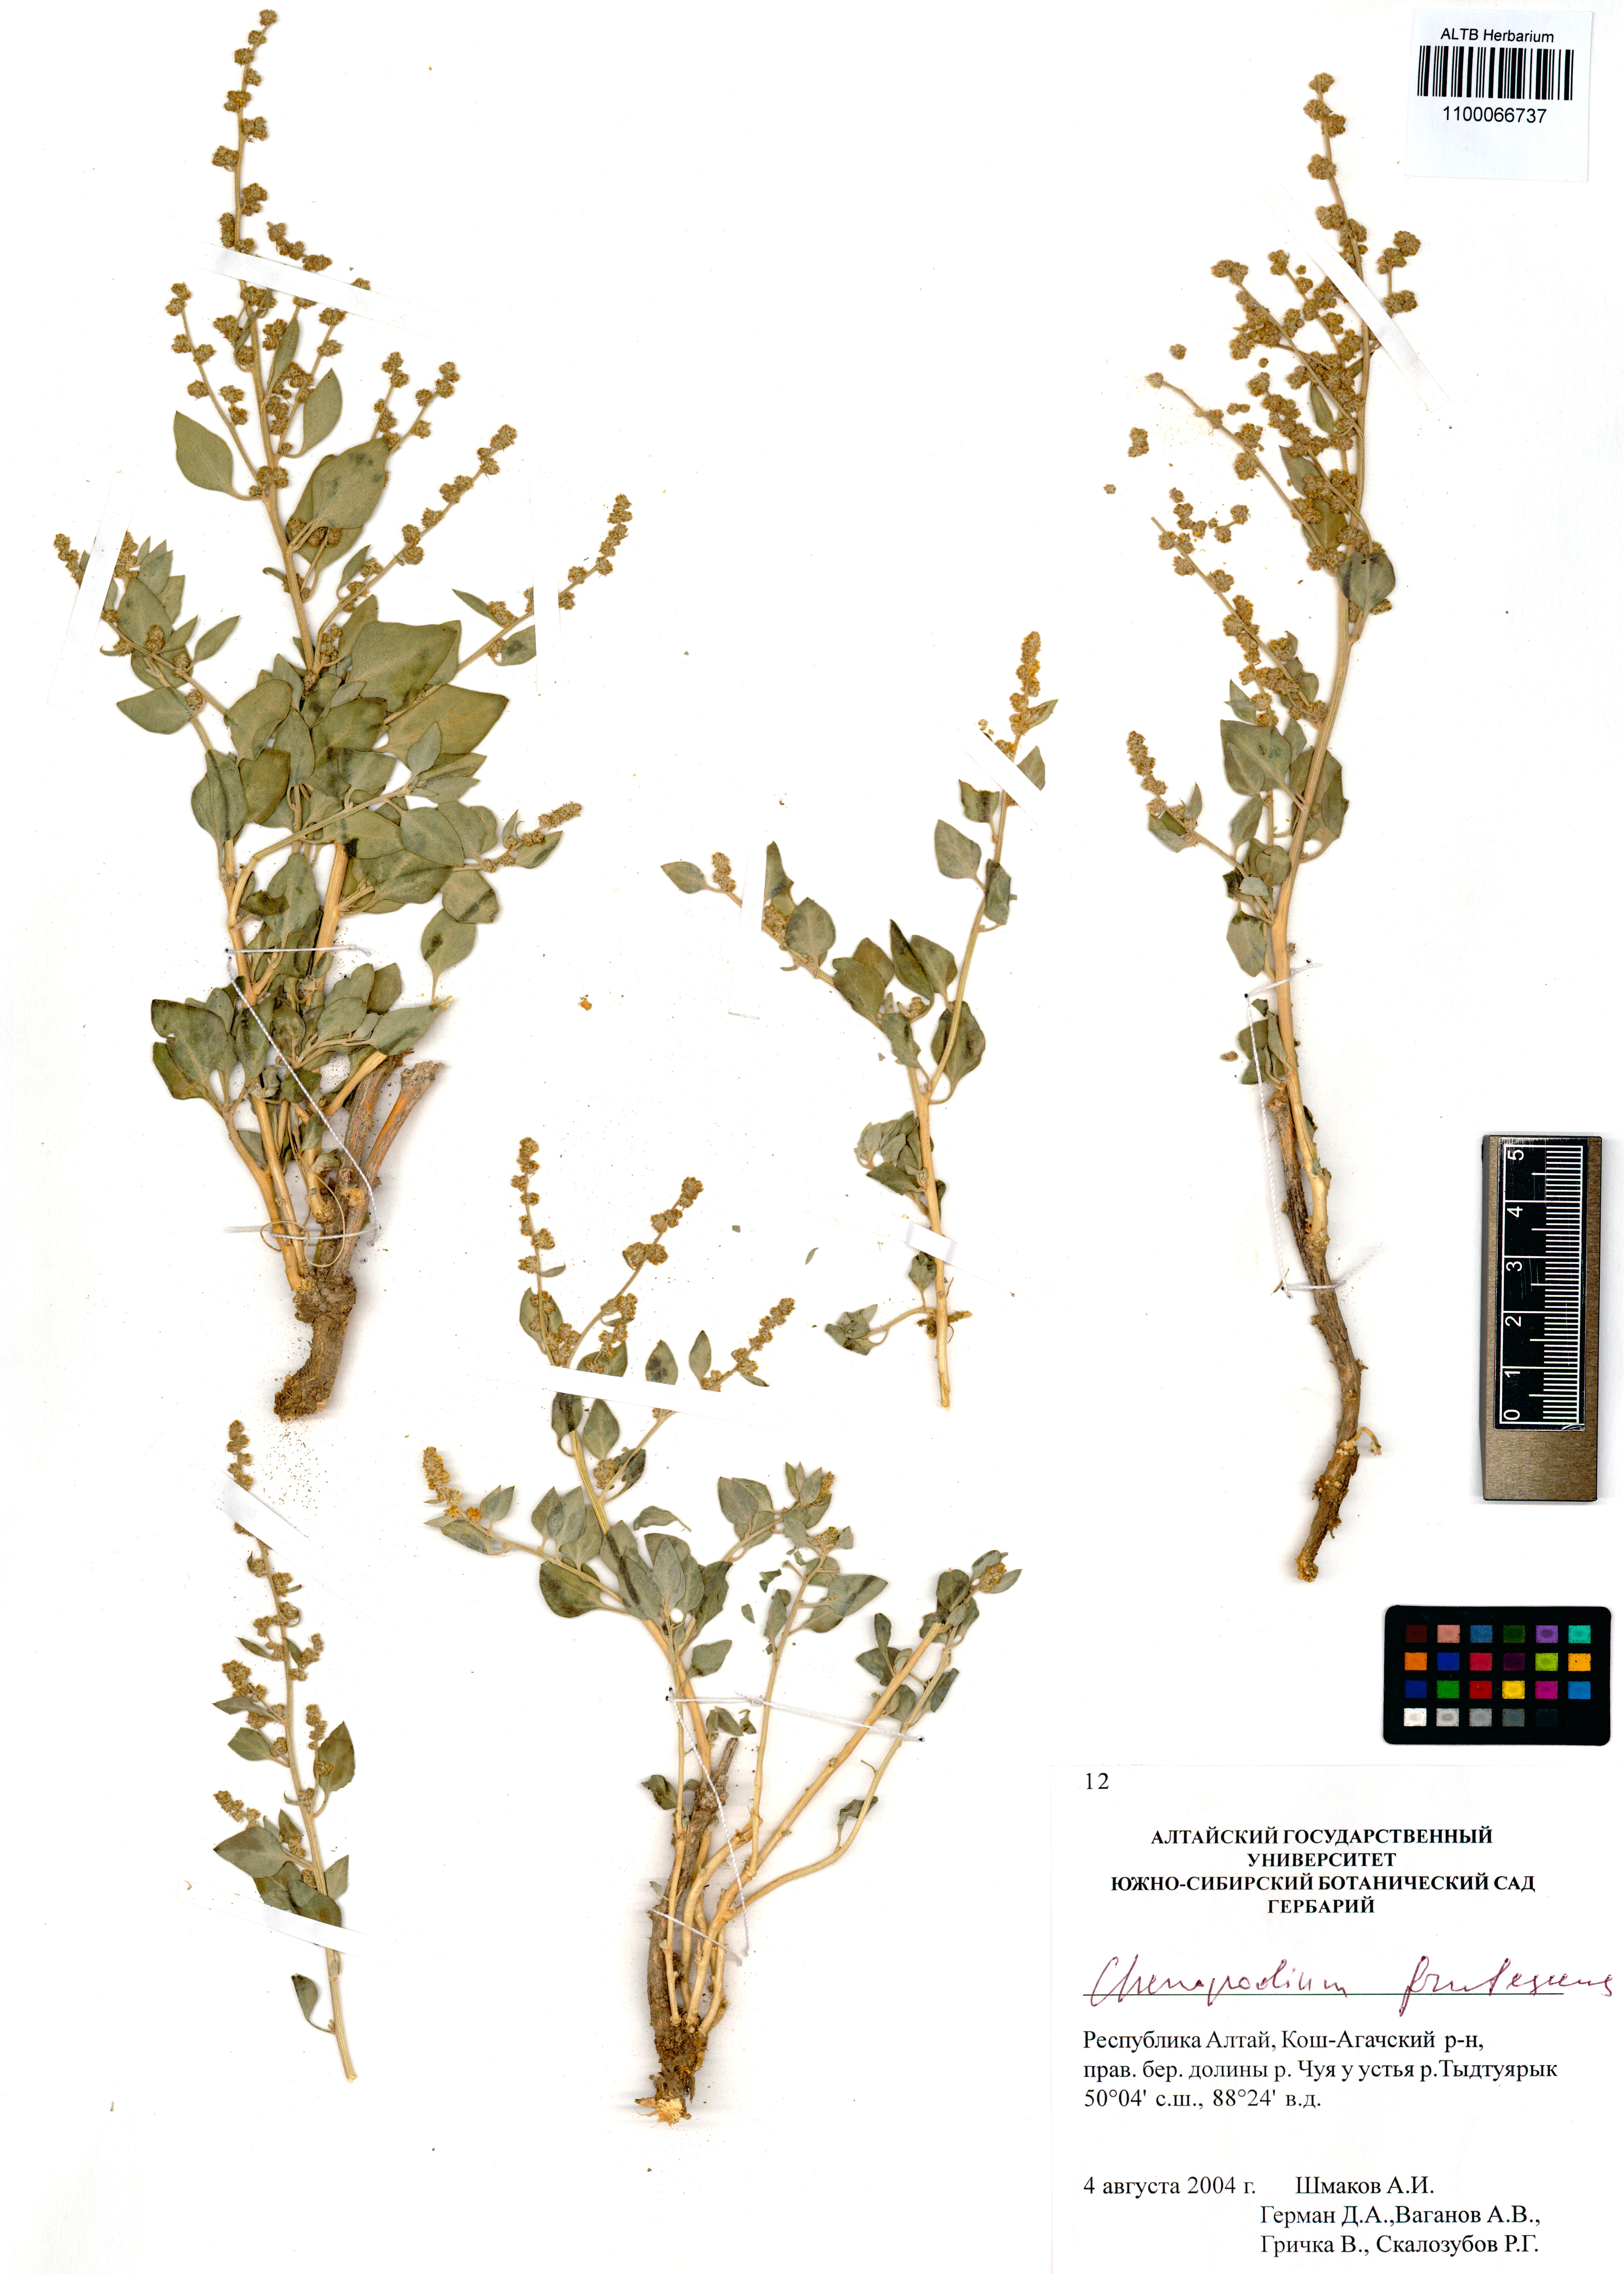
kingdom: Plantae
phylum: Tracheophyta
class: Magnoliopsida
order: Caryophyllales
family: Amaranthaceae
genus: Chenopodium
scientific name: Chenopodium frutescens
